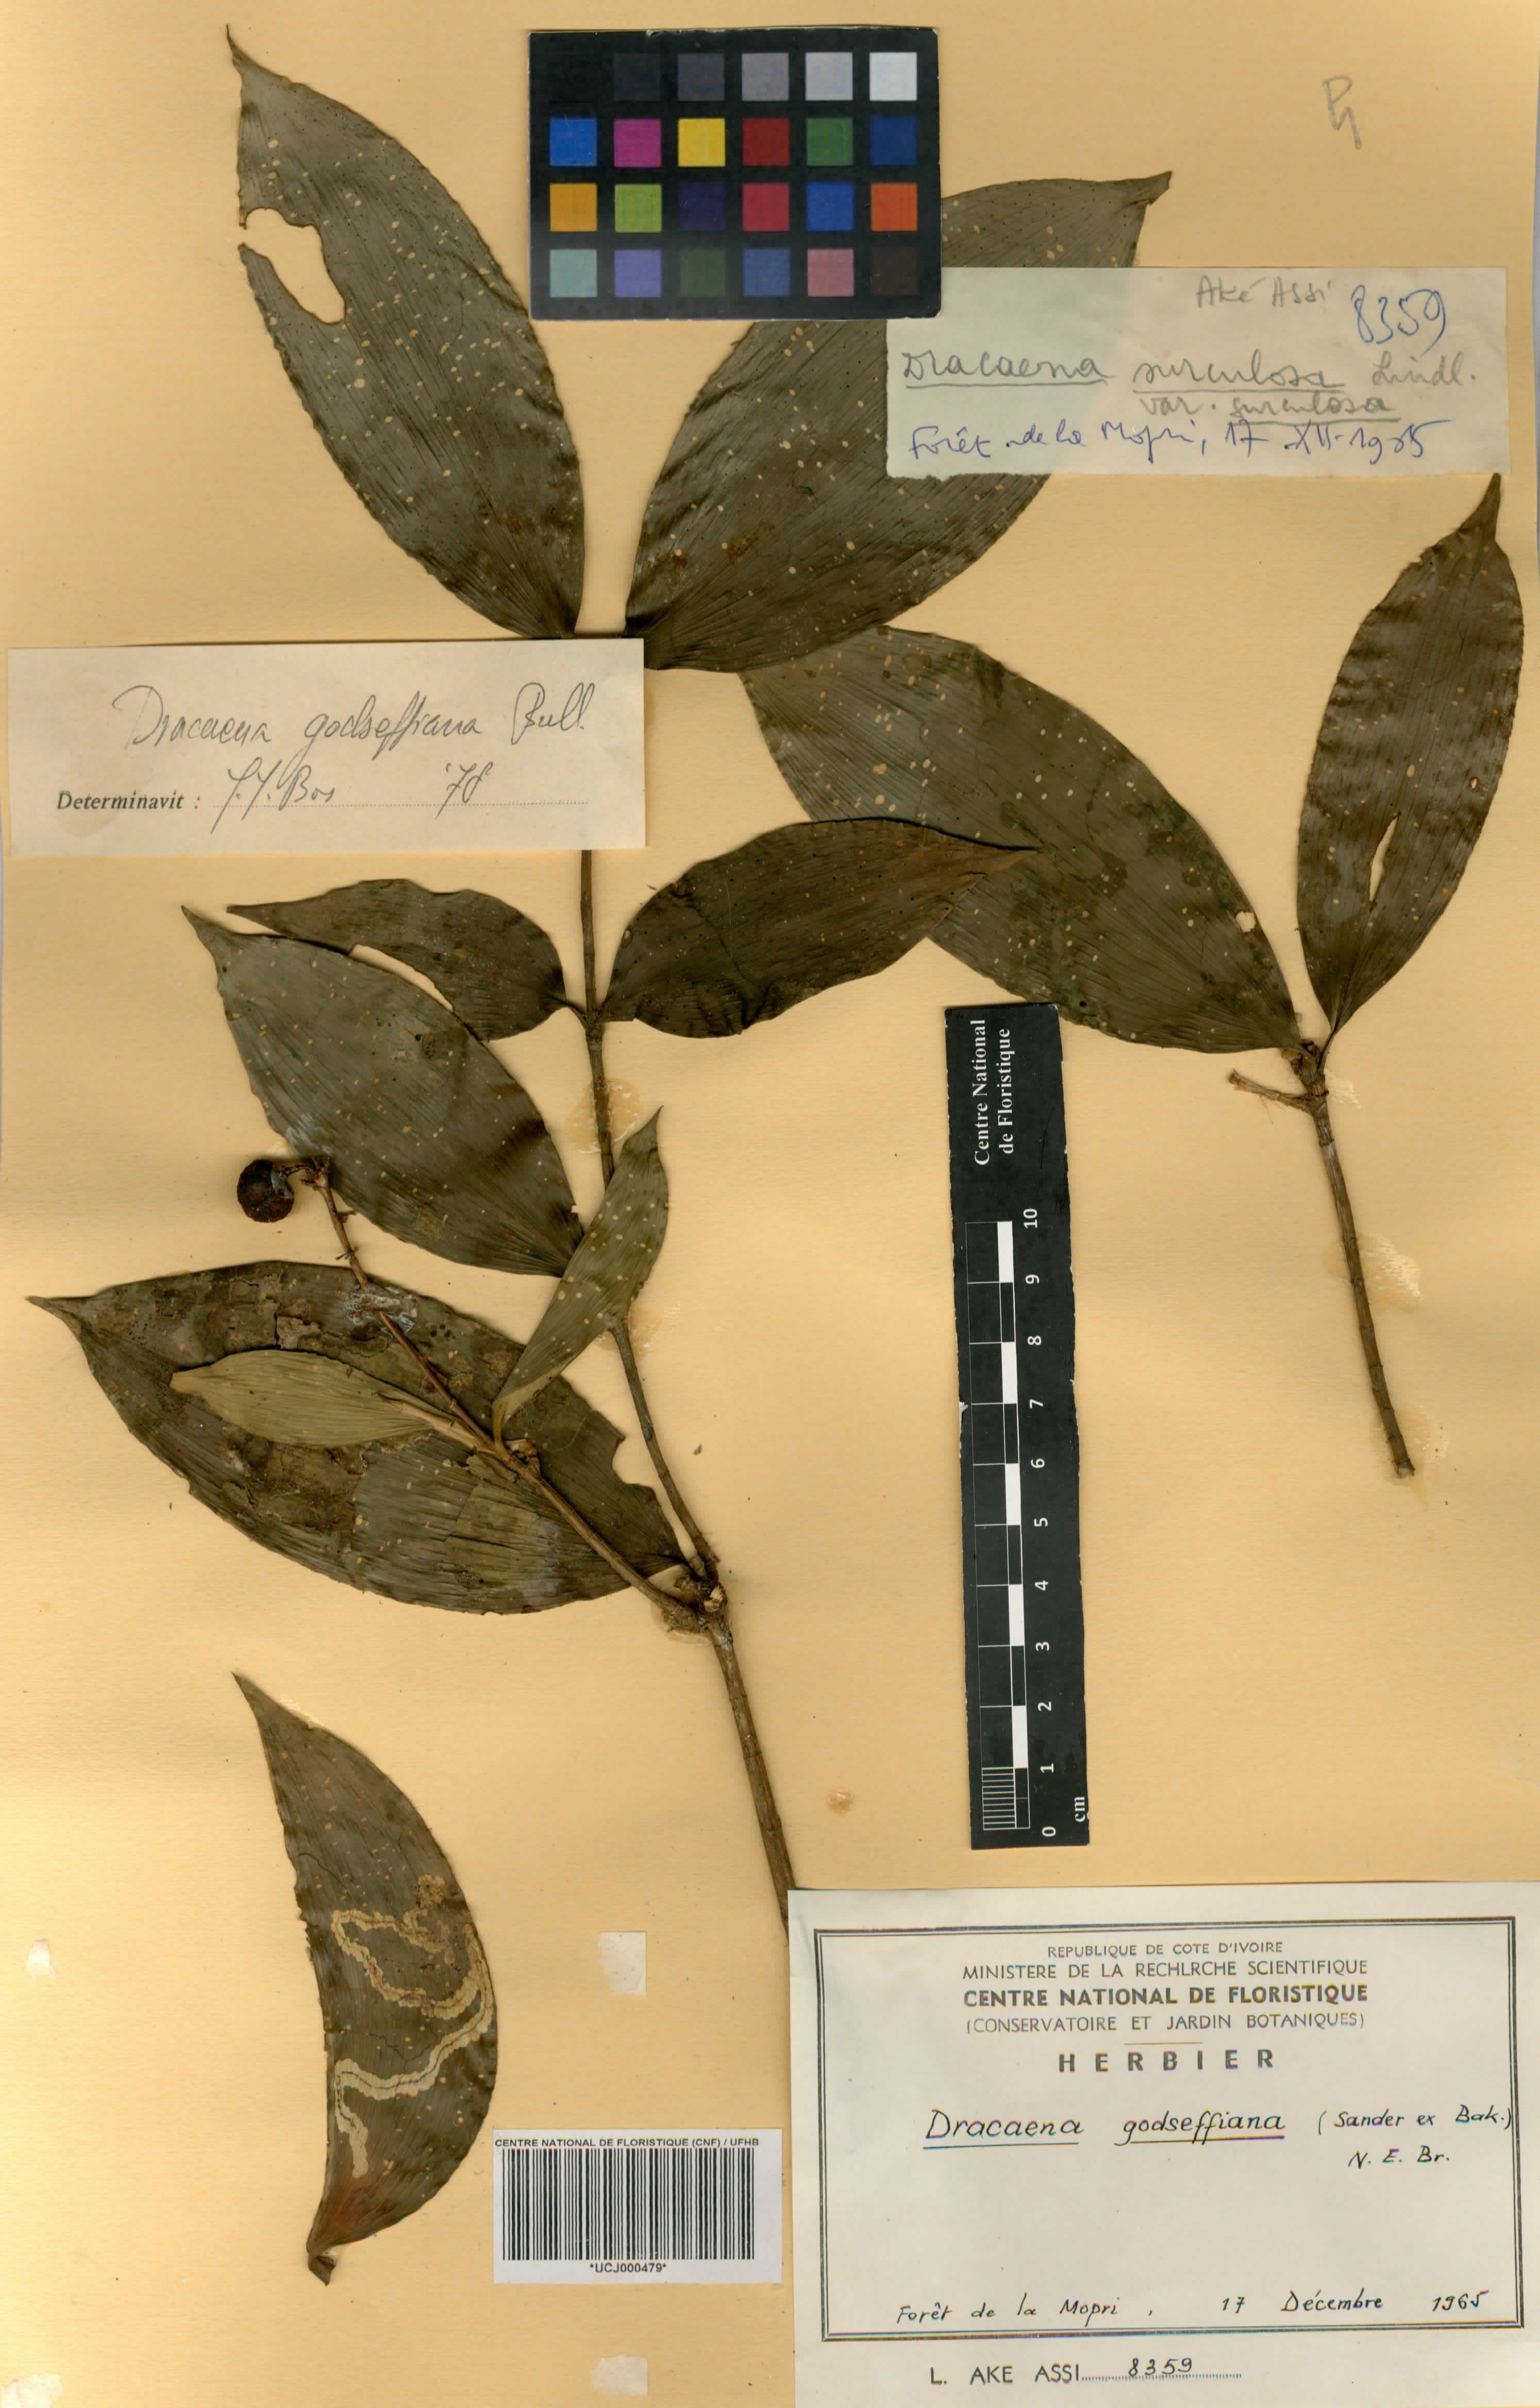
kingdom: Plantae
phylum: Tracheophyta
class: Liliopsida
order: Asparagales
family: Asparagaceae
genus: Dracaena
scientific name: Dracaena surculosa
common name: Spotted dracaena
